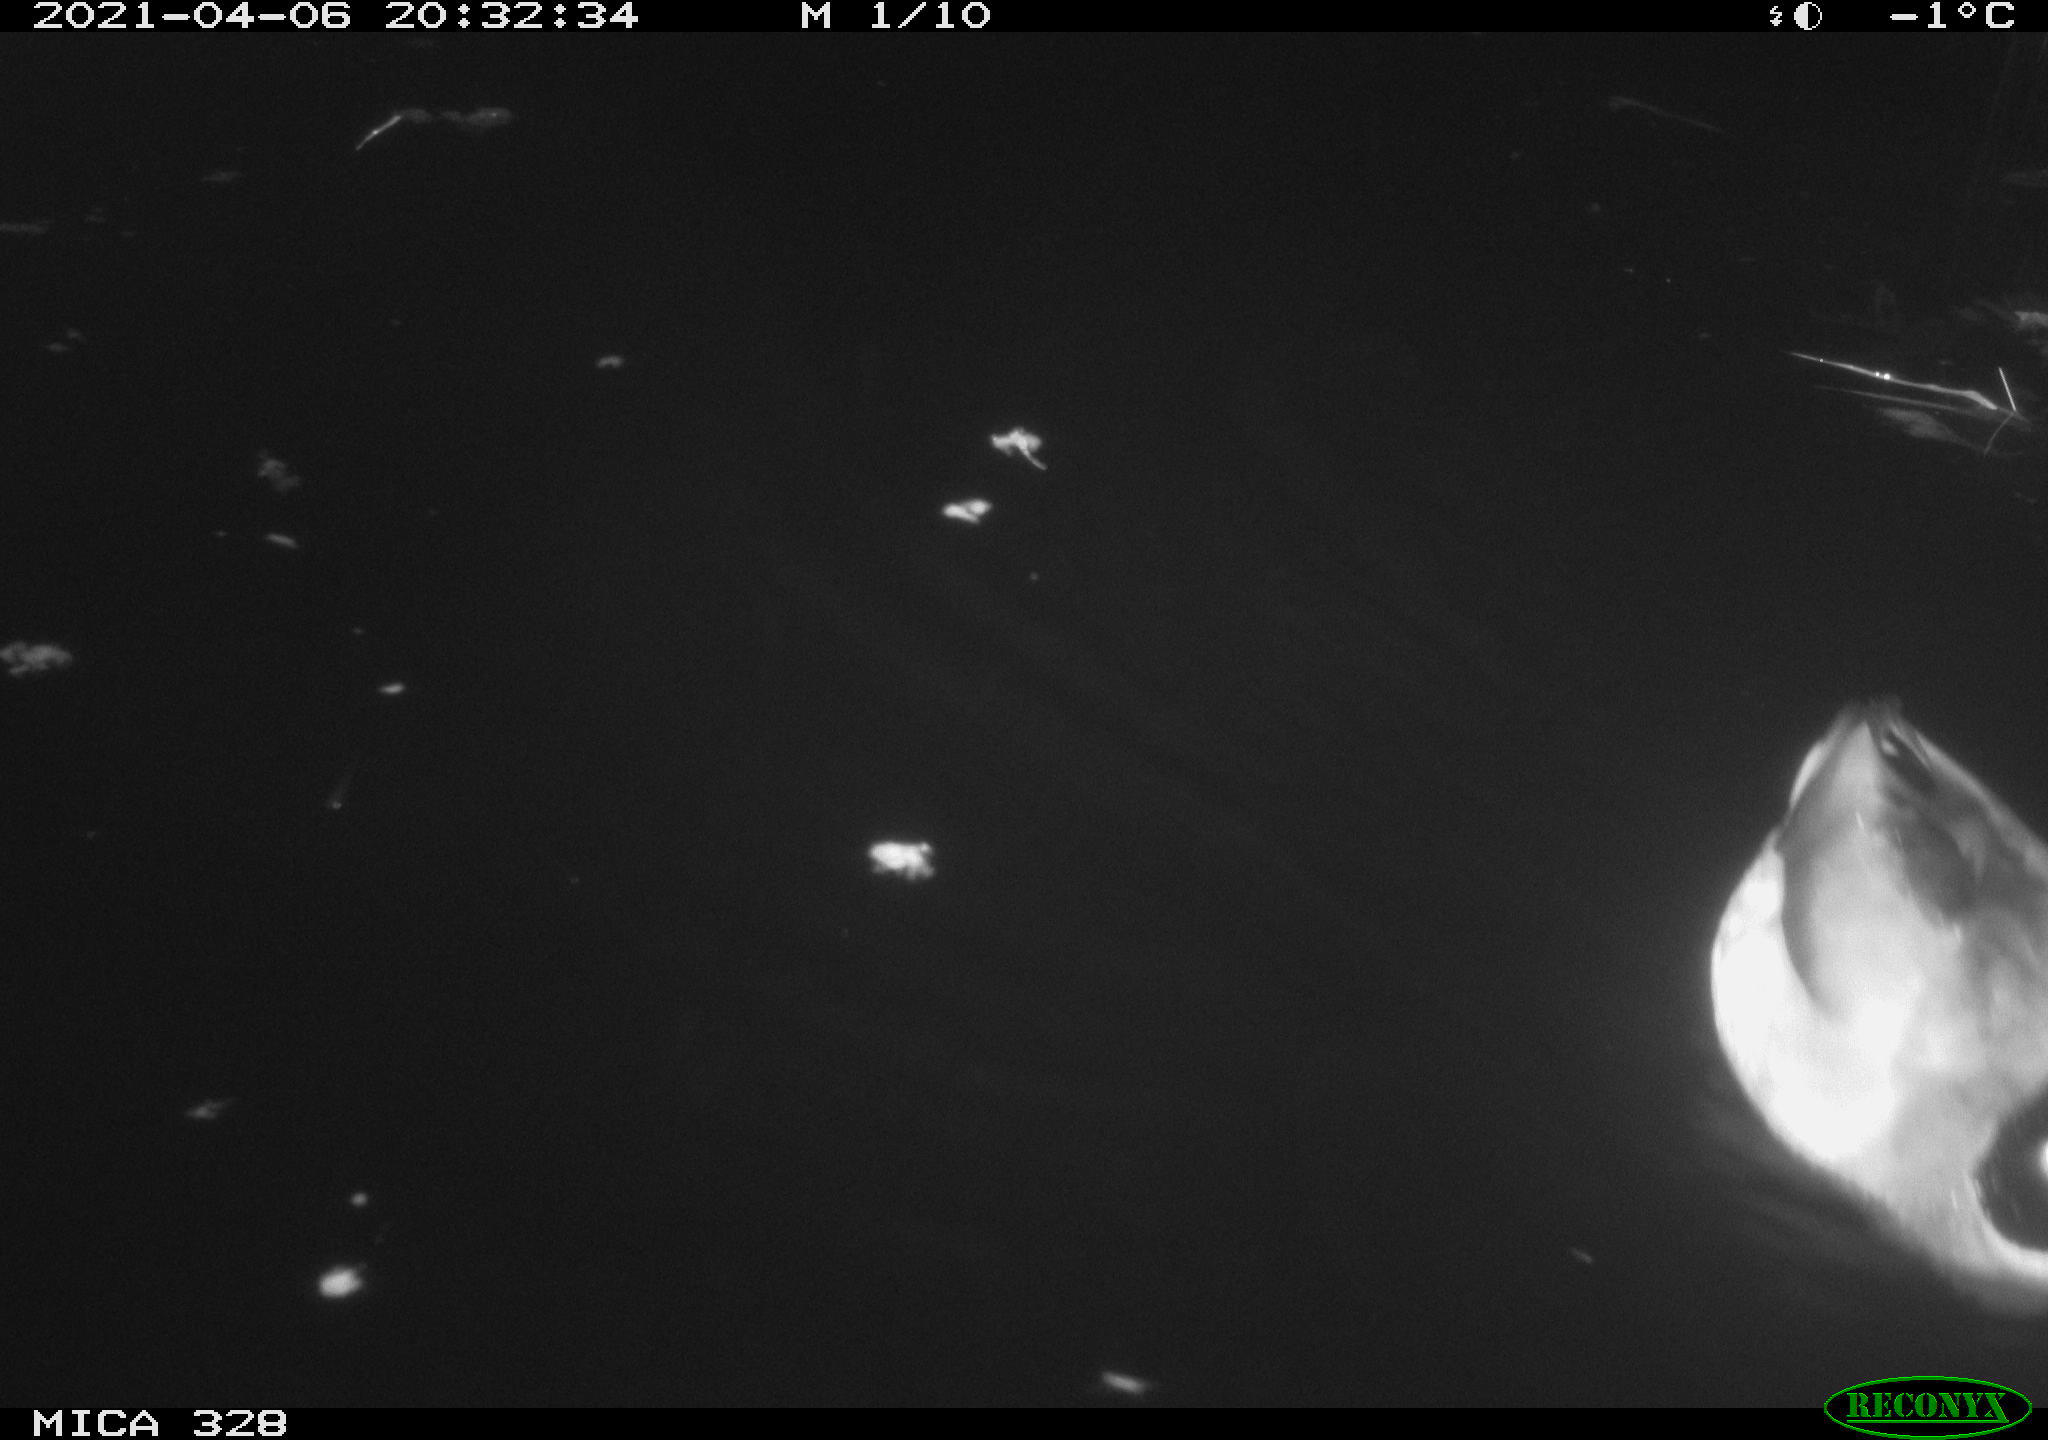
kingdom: Animalia
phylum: Chordata
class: Aves
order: Anseriformes
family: Anatidae
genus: Anas
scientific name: Anas platyrhynchos
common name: Mallard
